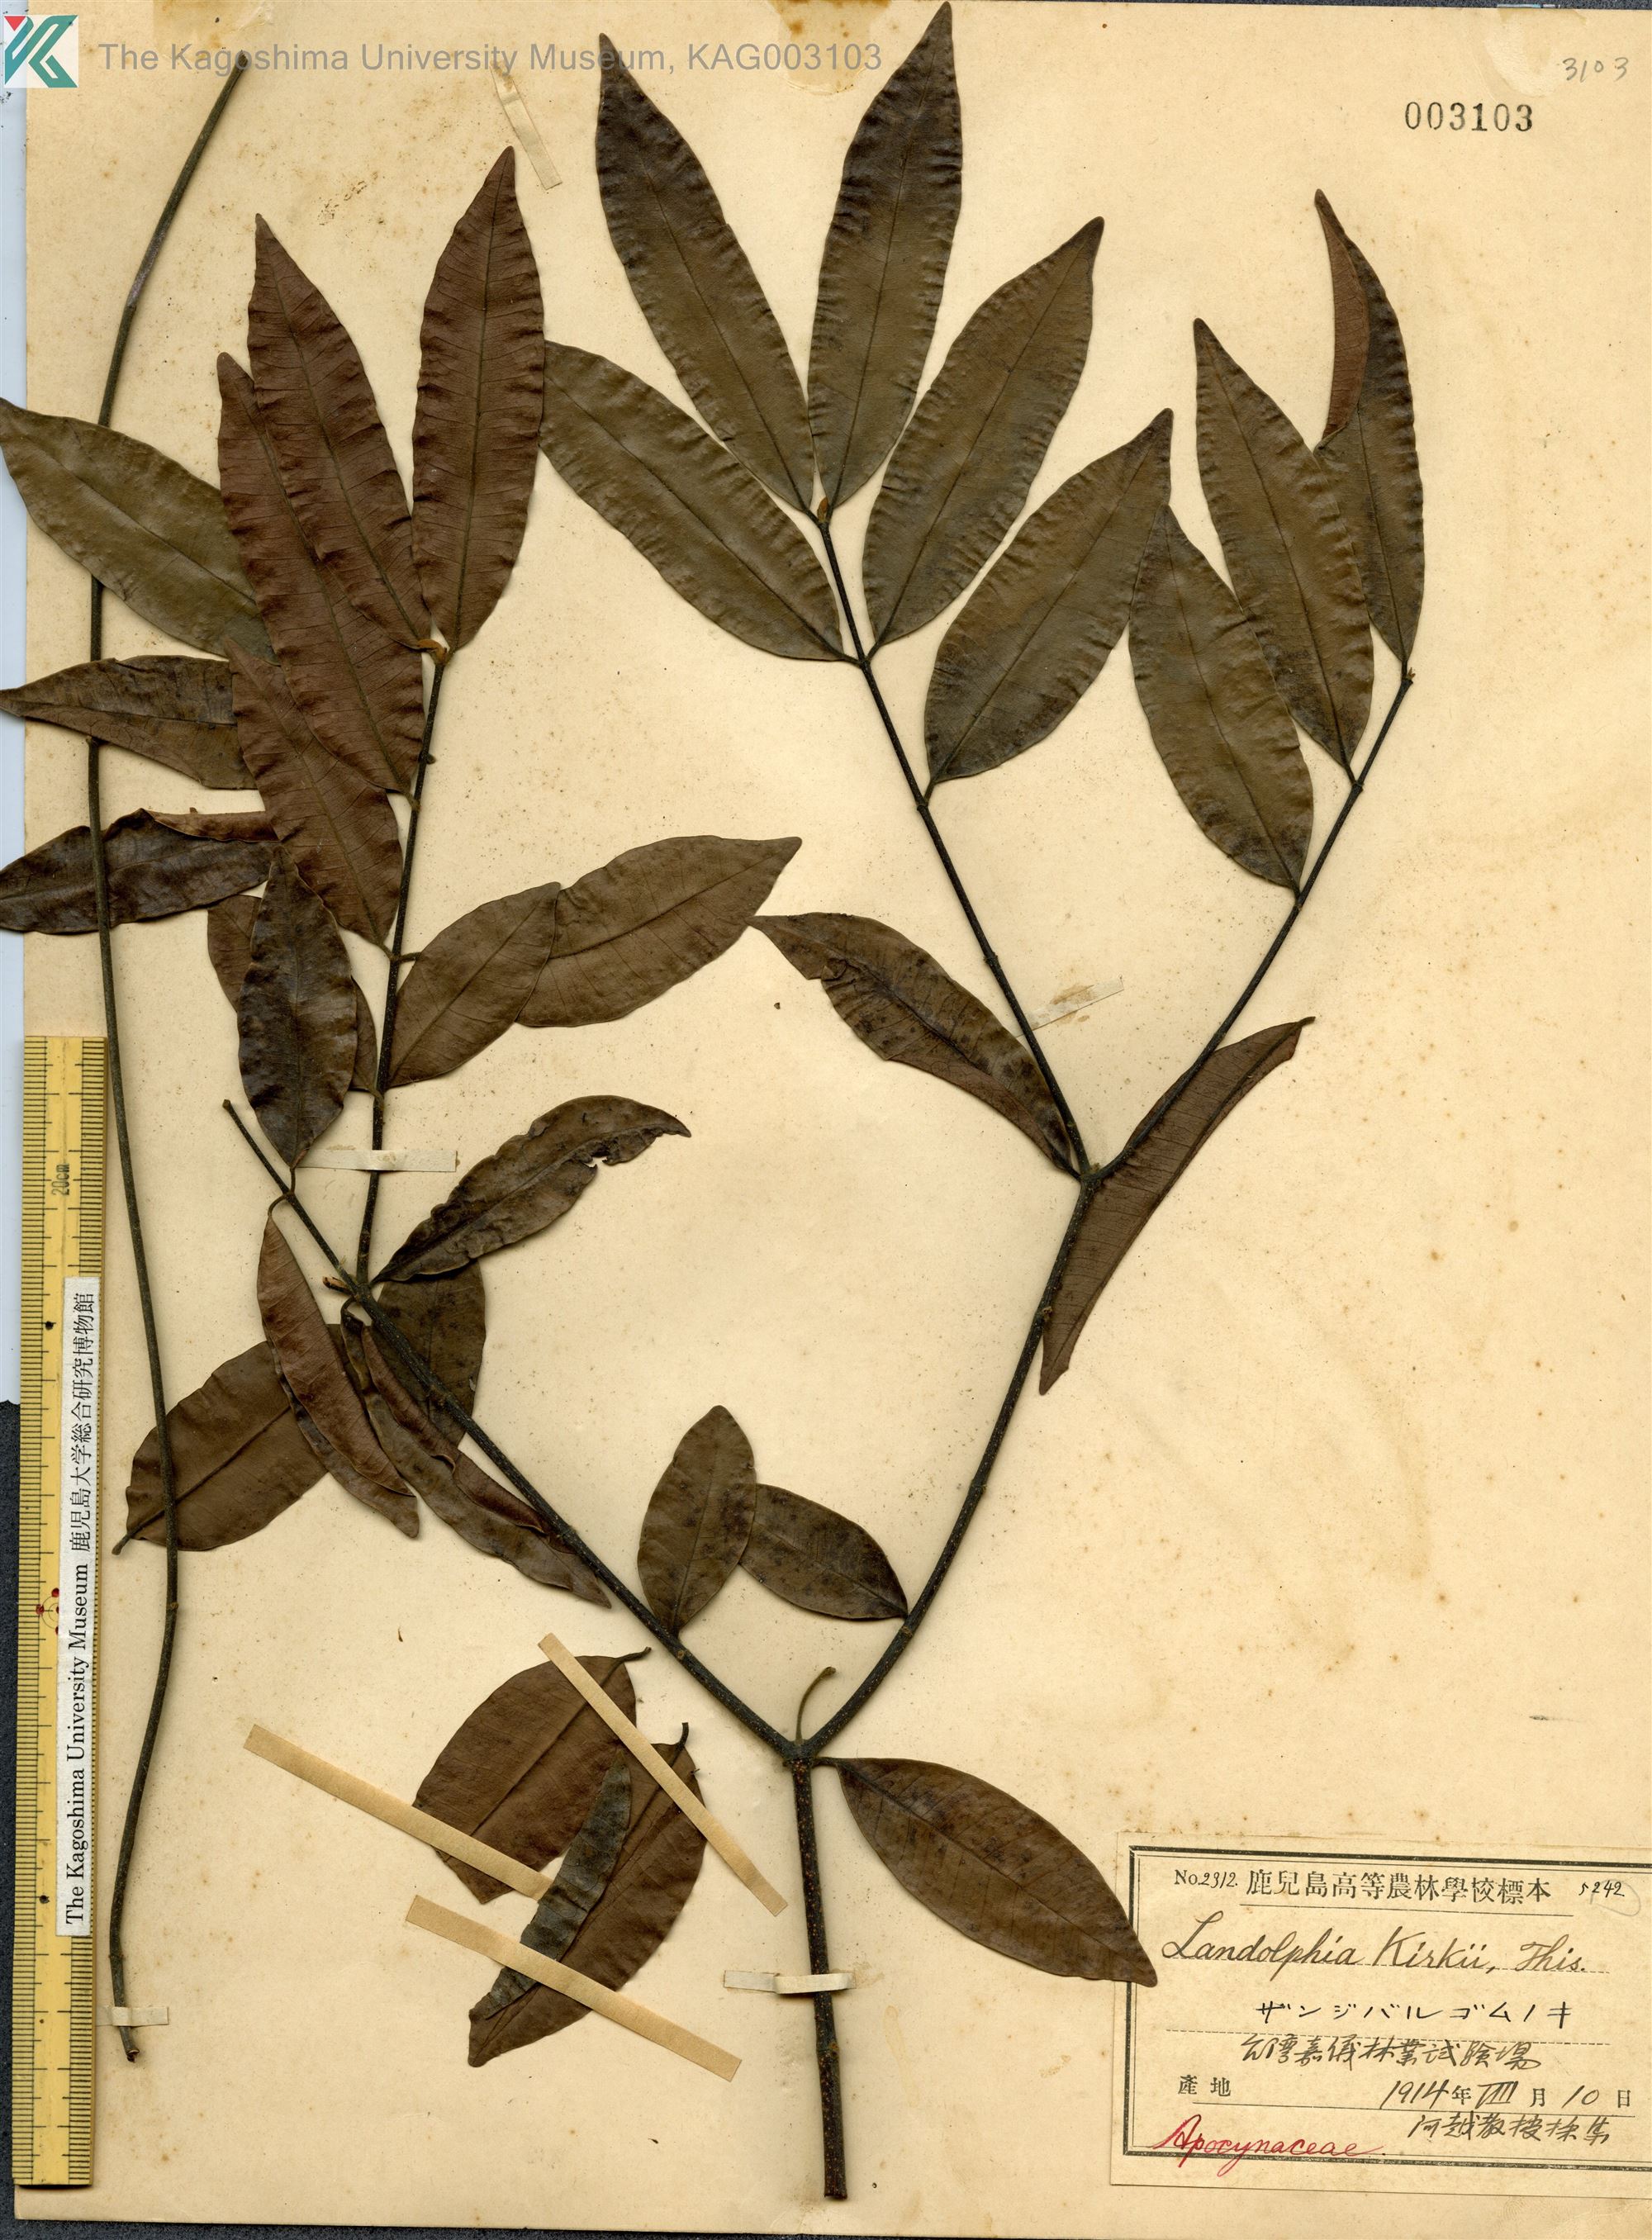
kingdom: Plantae
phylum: Tracheophyta
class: Magnoliopsida
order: Gentianales
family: Apocynaceae
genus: Landolphia
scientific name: Landolphia kirkii
